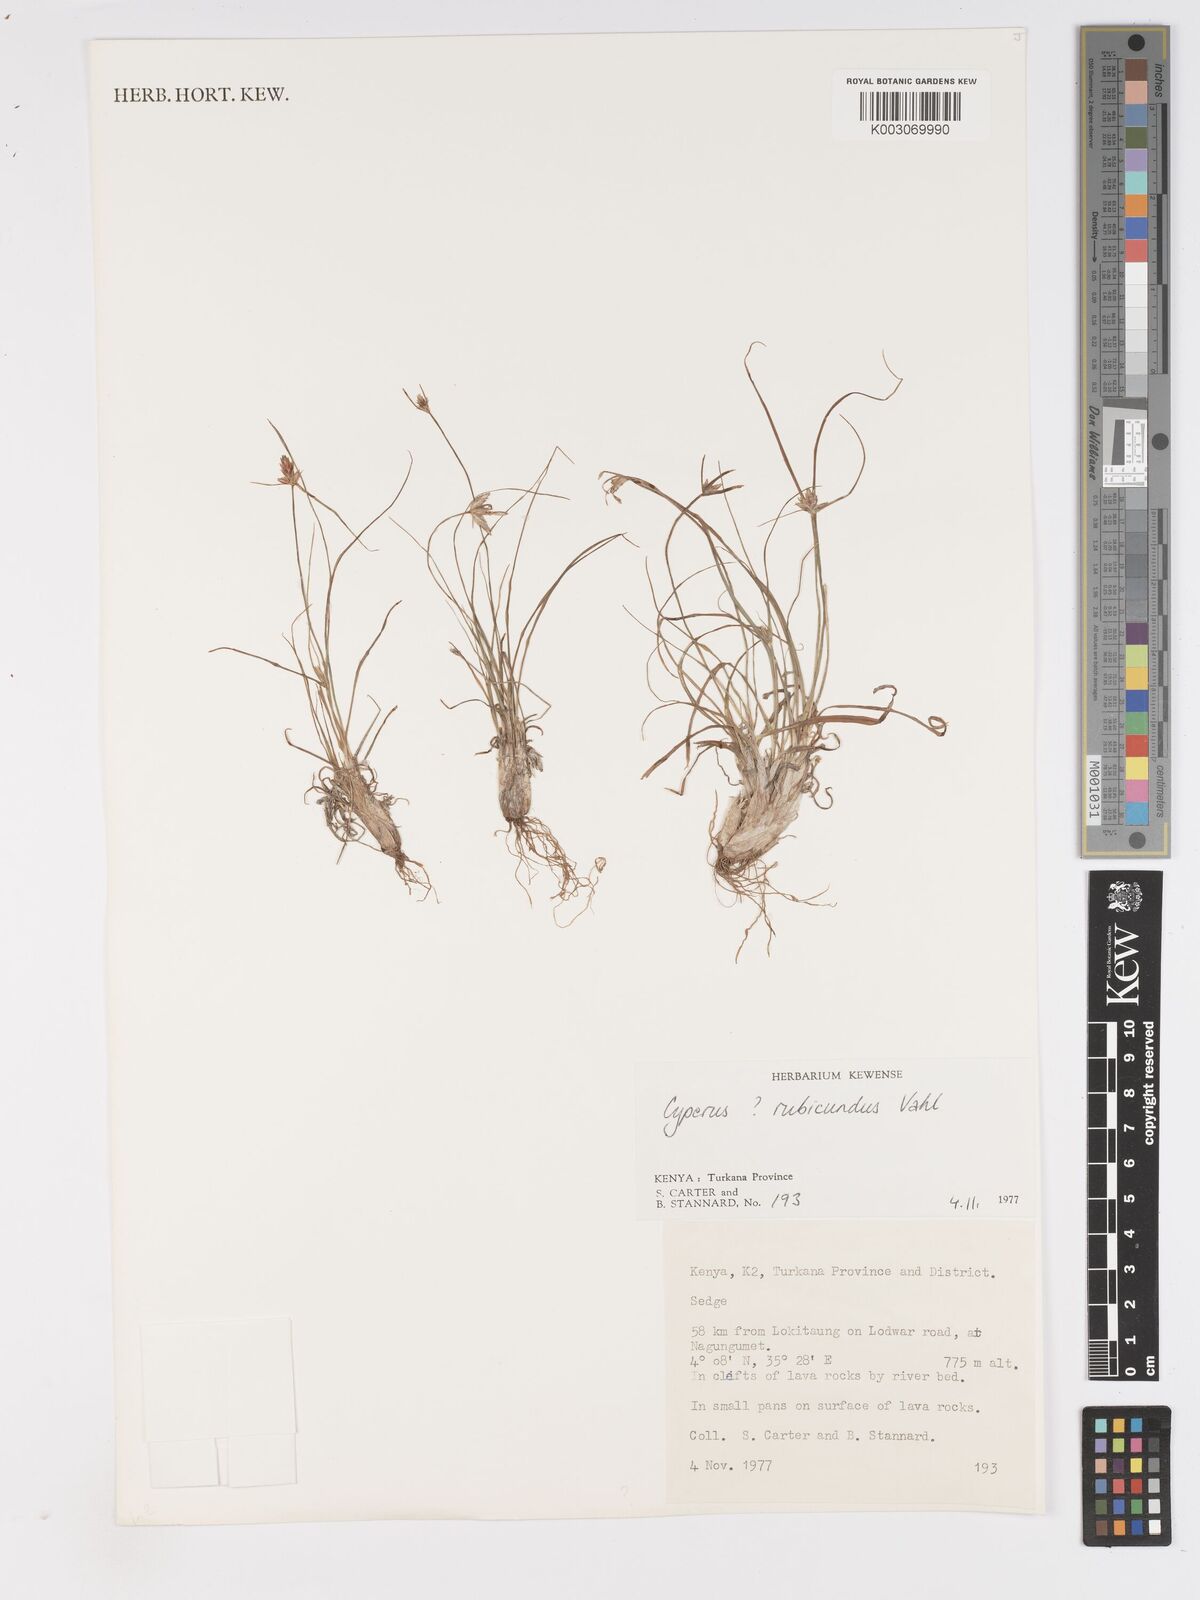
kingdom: Plantae
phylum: Tracheophyta
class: Liliopsida
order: Poales
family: Cyperaceae
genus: Cyperus
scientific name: Cyperus rubicundus
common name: Coco-grass
